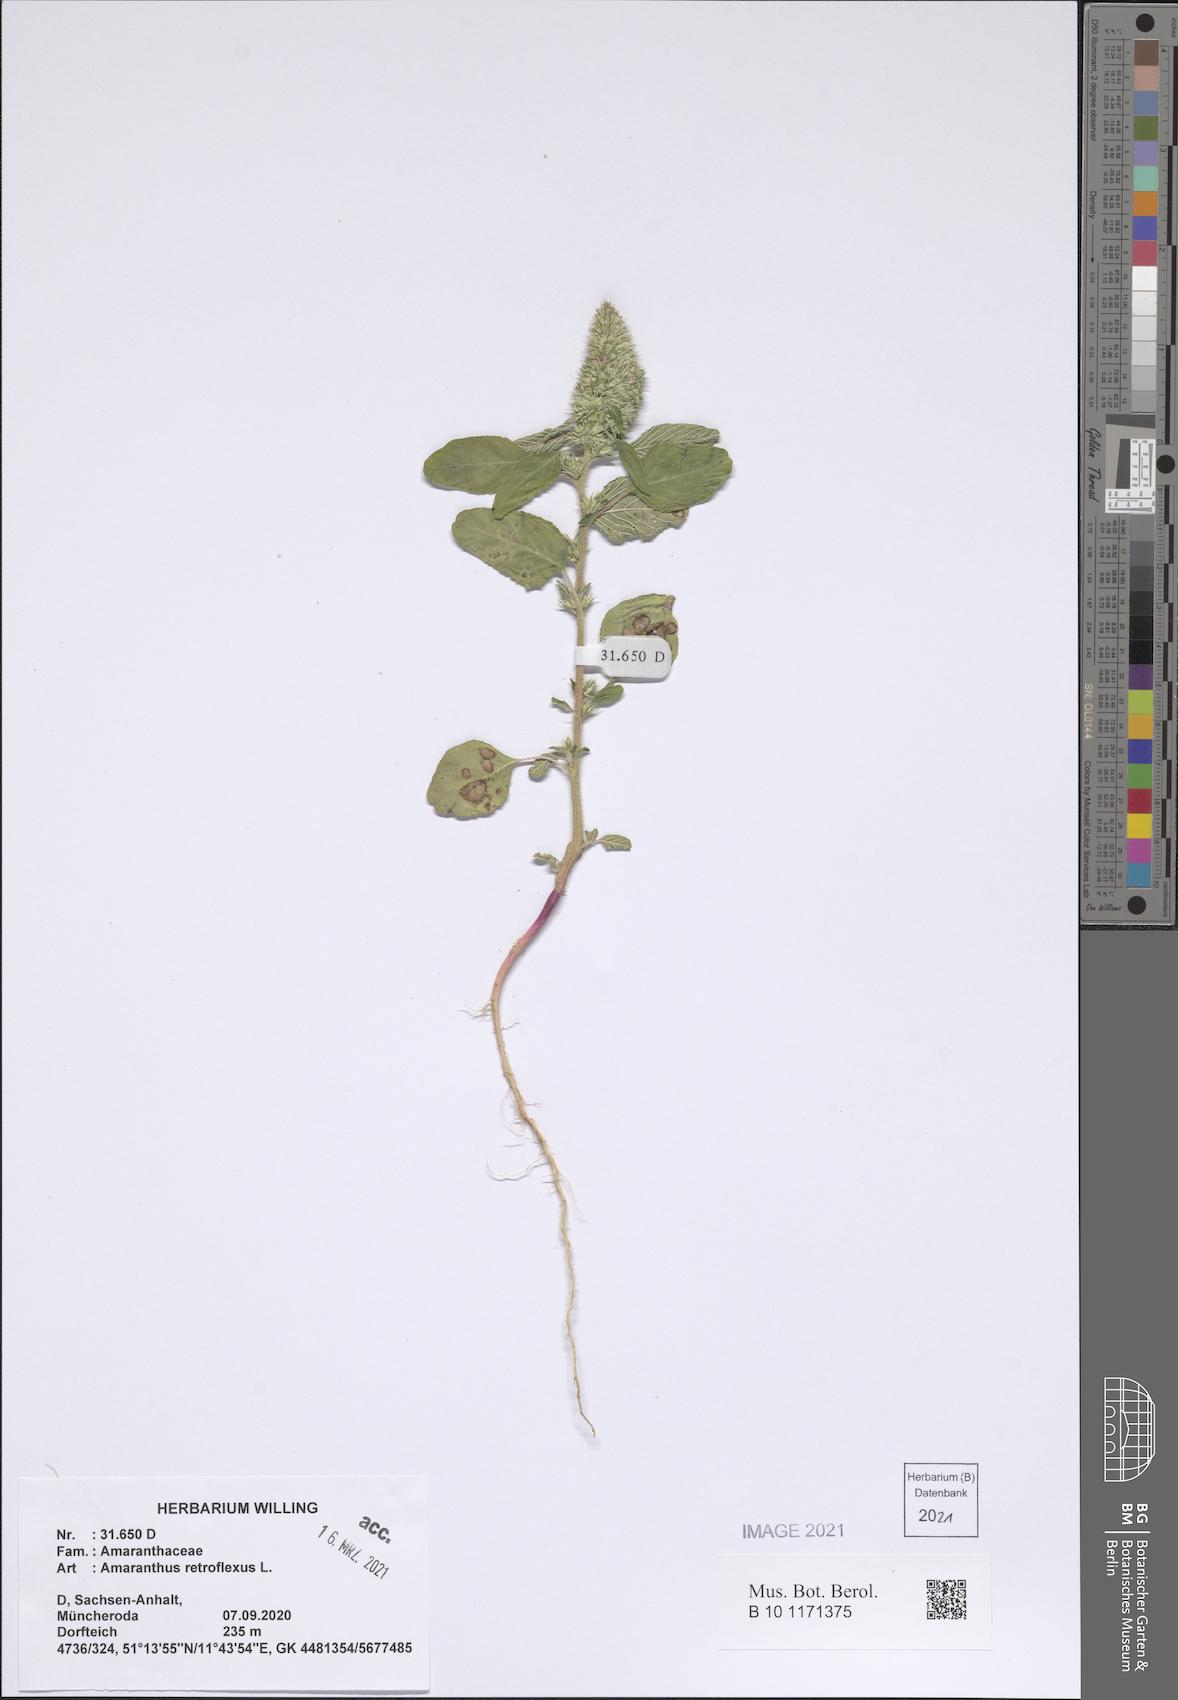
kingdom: Plantae
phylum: Tracheophyta
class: Magnoliopsida
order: Caryophyllales
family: Amaranthaceae
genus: Amaranthus
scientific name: Amaranthus retroflexus
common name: Redroot amaranth
